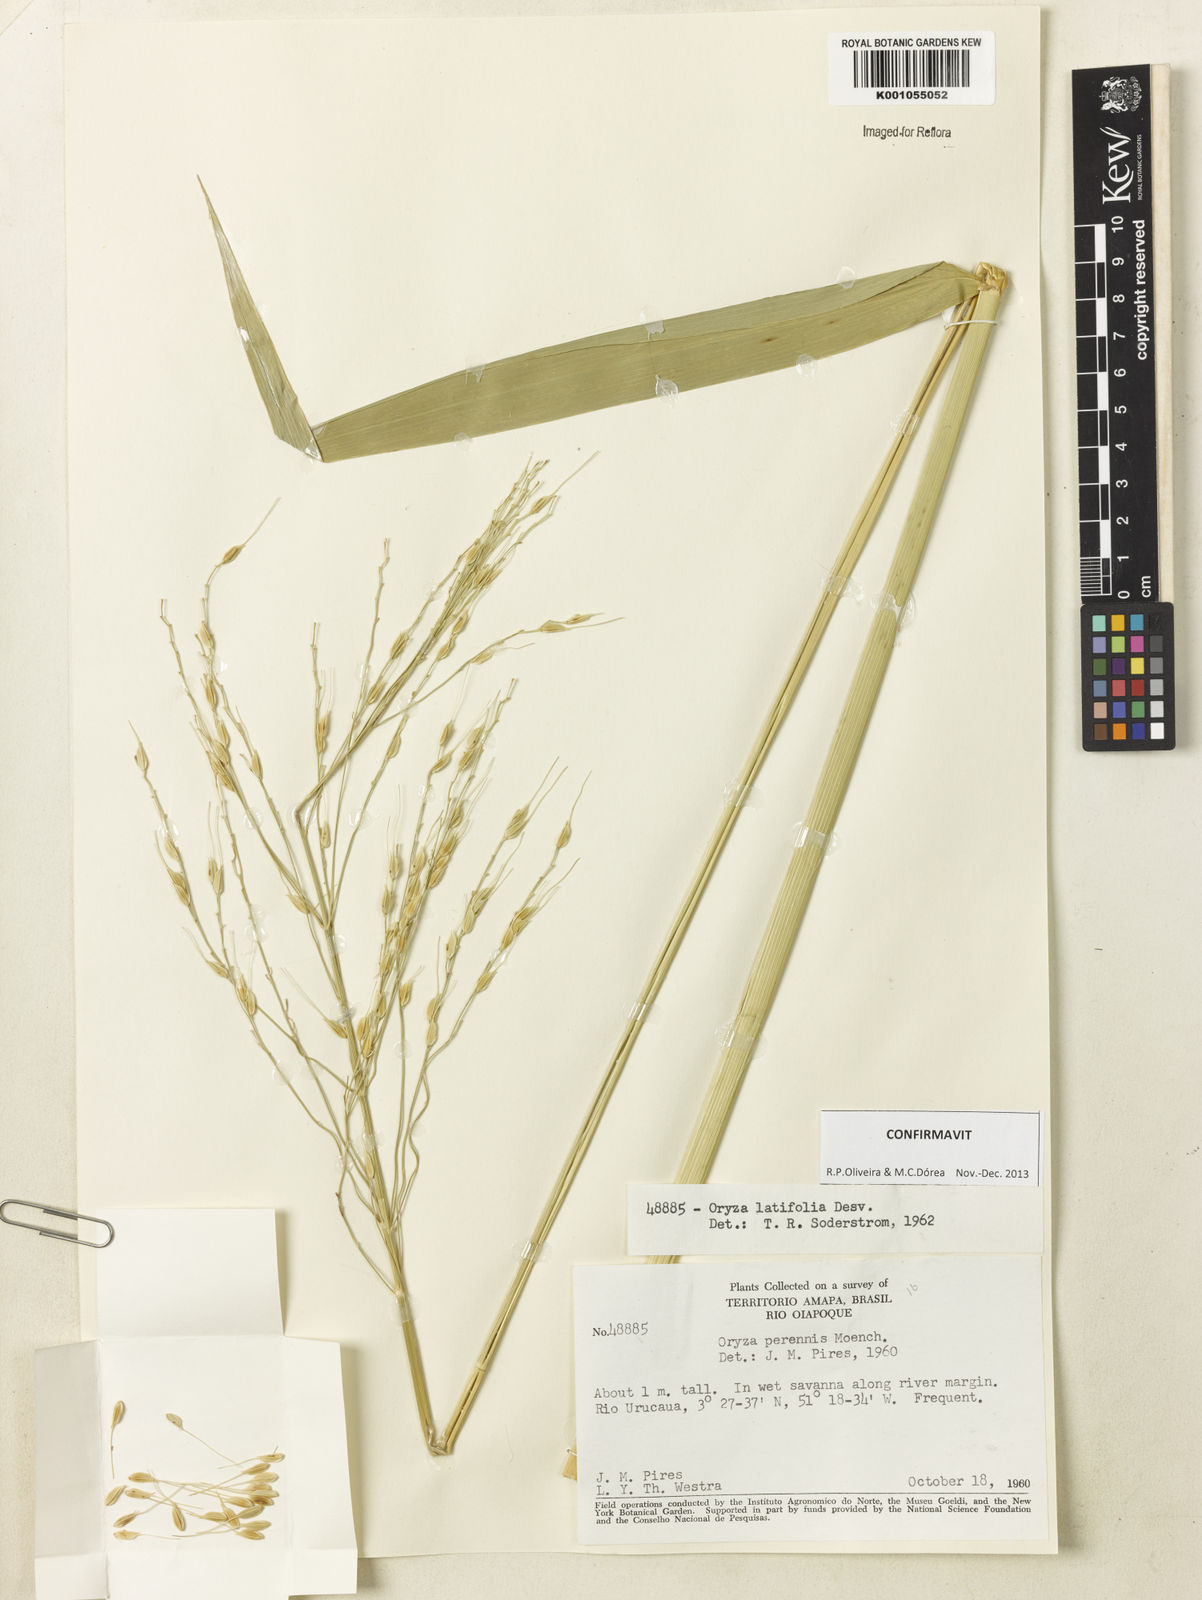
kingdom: Plantae
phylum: Tracheophyta
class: Liliopsida
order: Poales
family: Poaceae
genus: Oryza
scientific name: Oryza latifolia
